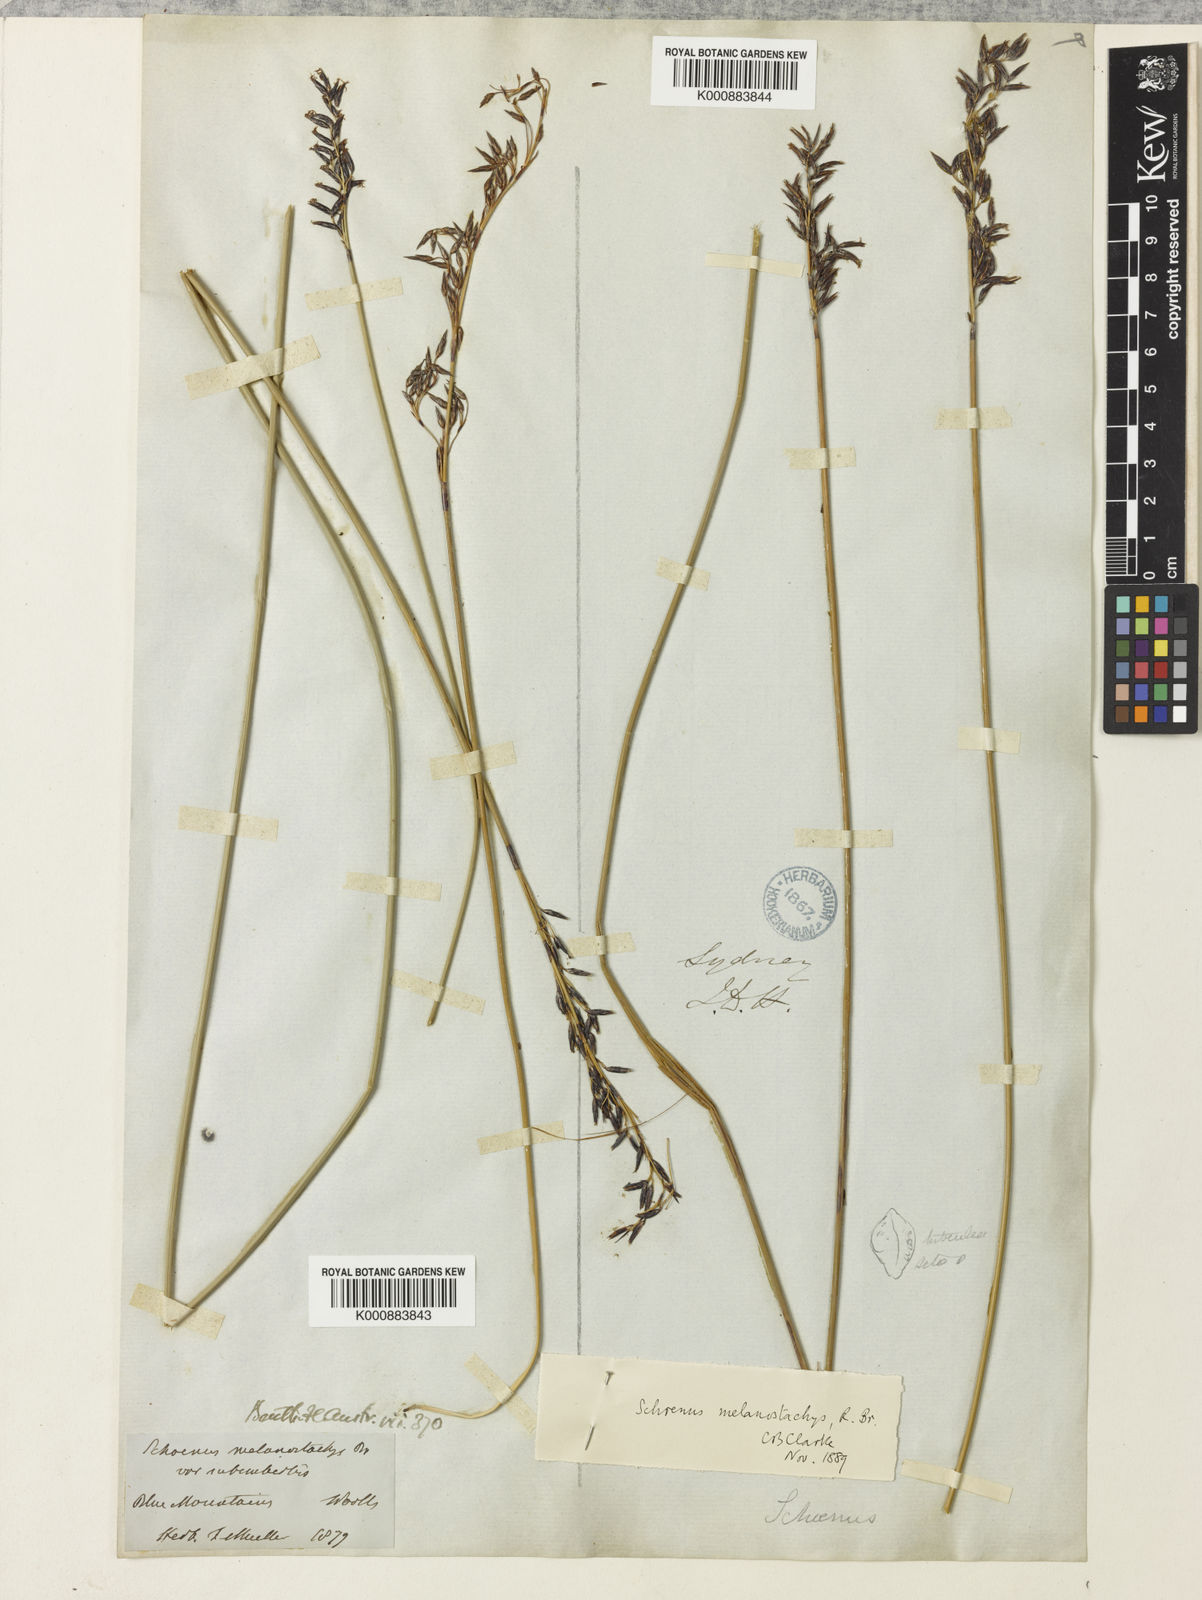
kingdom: Plantae
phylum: Tracheophyta
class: Liliopsida
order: Poales
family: Cyperaceae
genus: Schoenus
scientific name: Schoenus melanostachys
